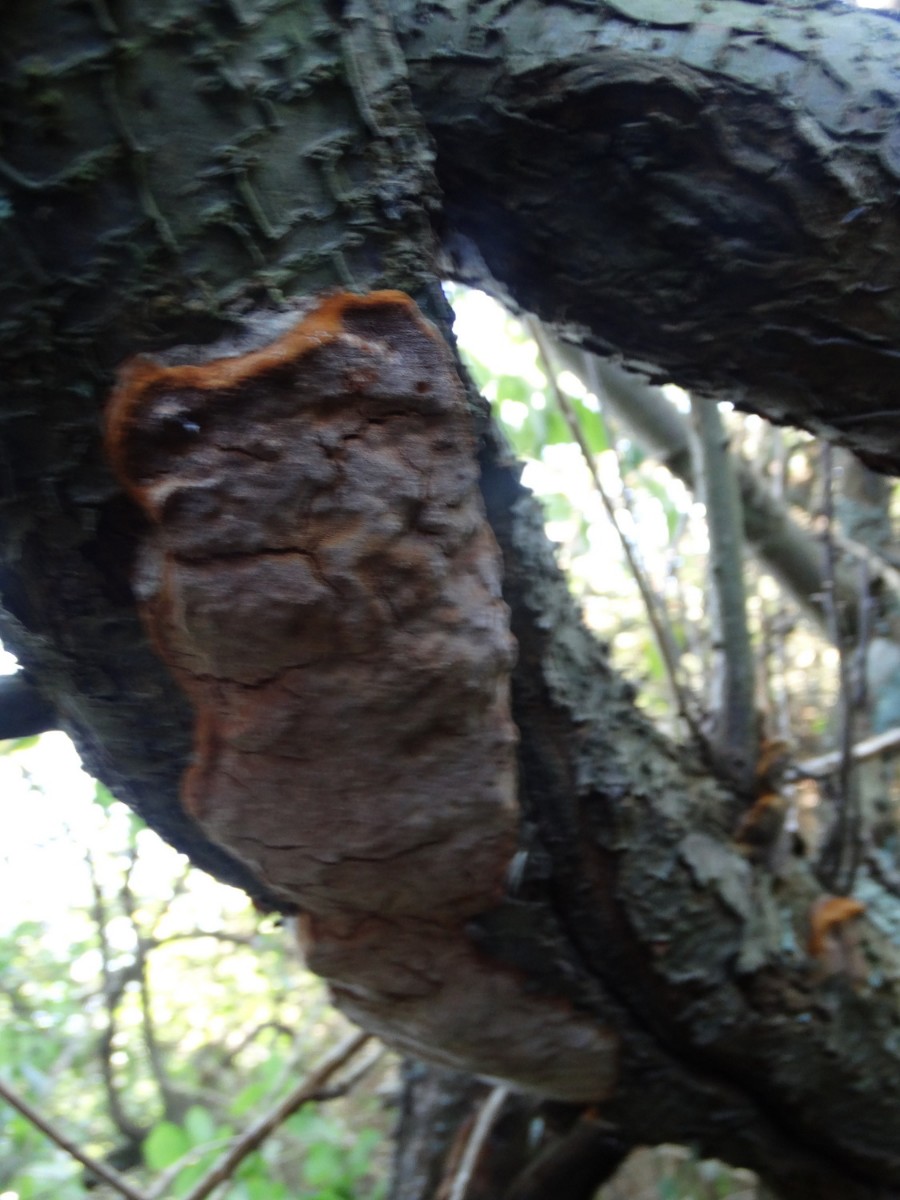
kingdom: Fungi
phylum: Basidiomycota
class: Agaricomycetes
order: Hymenochaetales
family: Hymenochaetaceae
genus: Phellinus
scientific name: Phellinus pomaceus
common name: blomme-ildporesvamp
